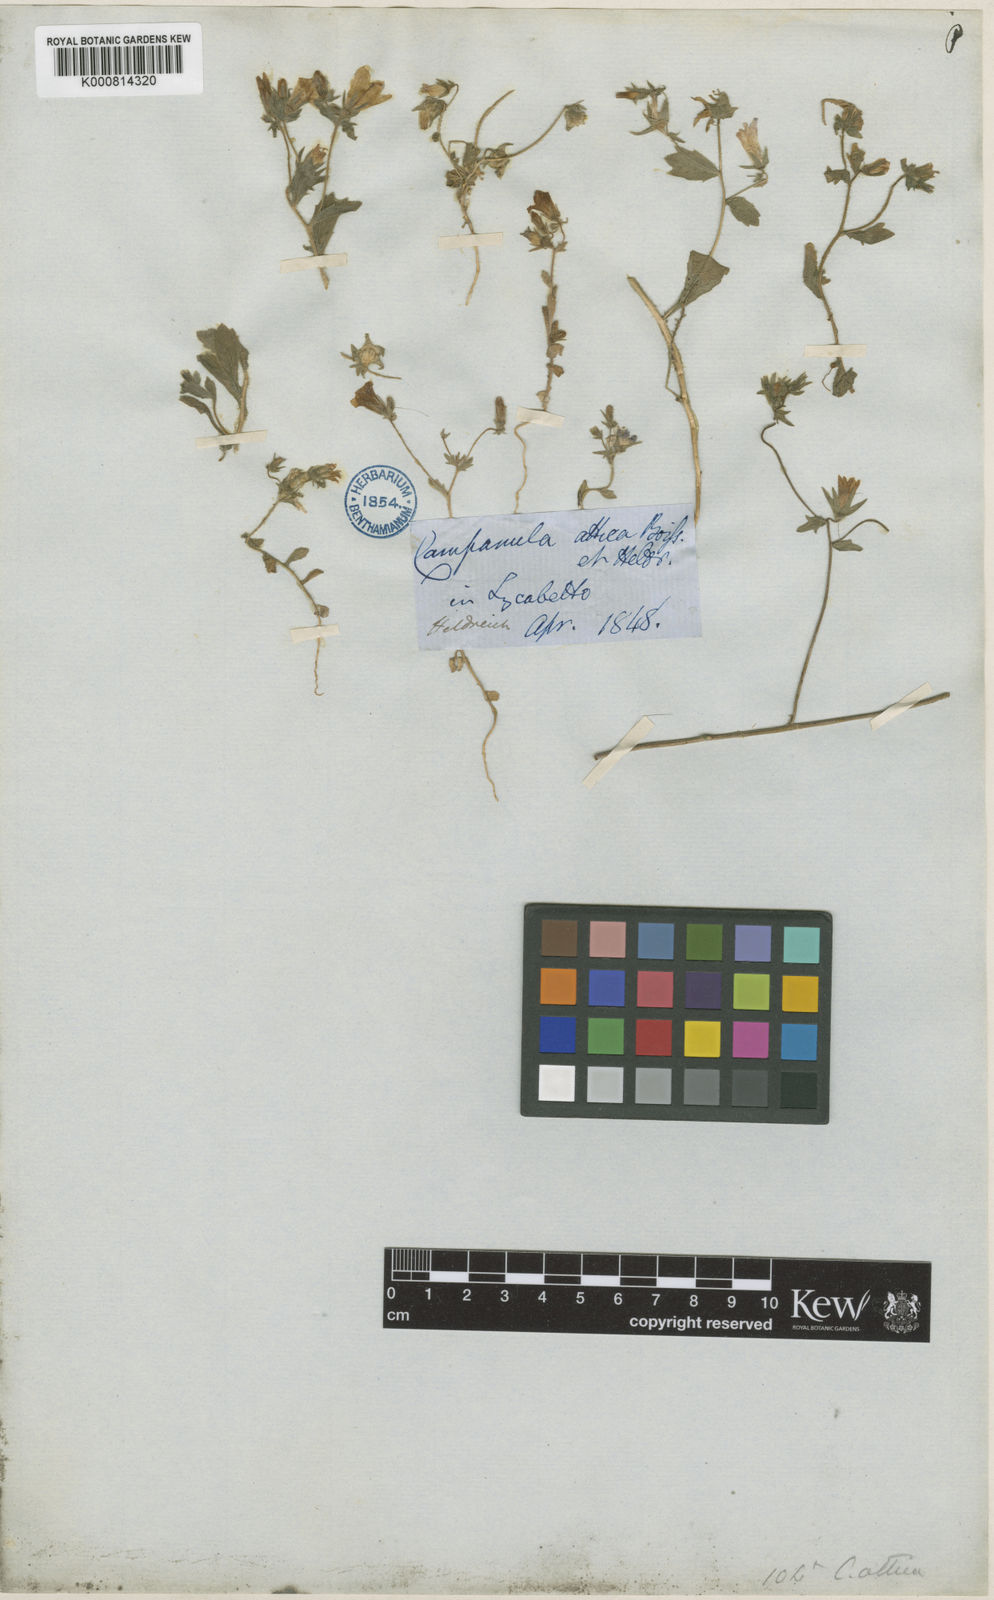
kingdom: Plantae
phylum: Tracheophyta
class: Magnoliopsida
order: Asterales
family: Campanulaceae
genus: Campanula
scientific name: Campanula drabifolia
